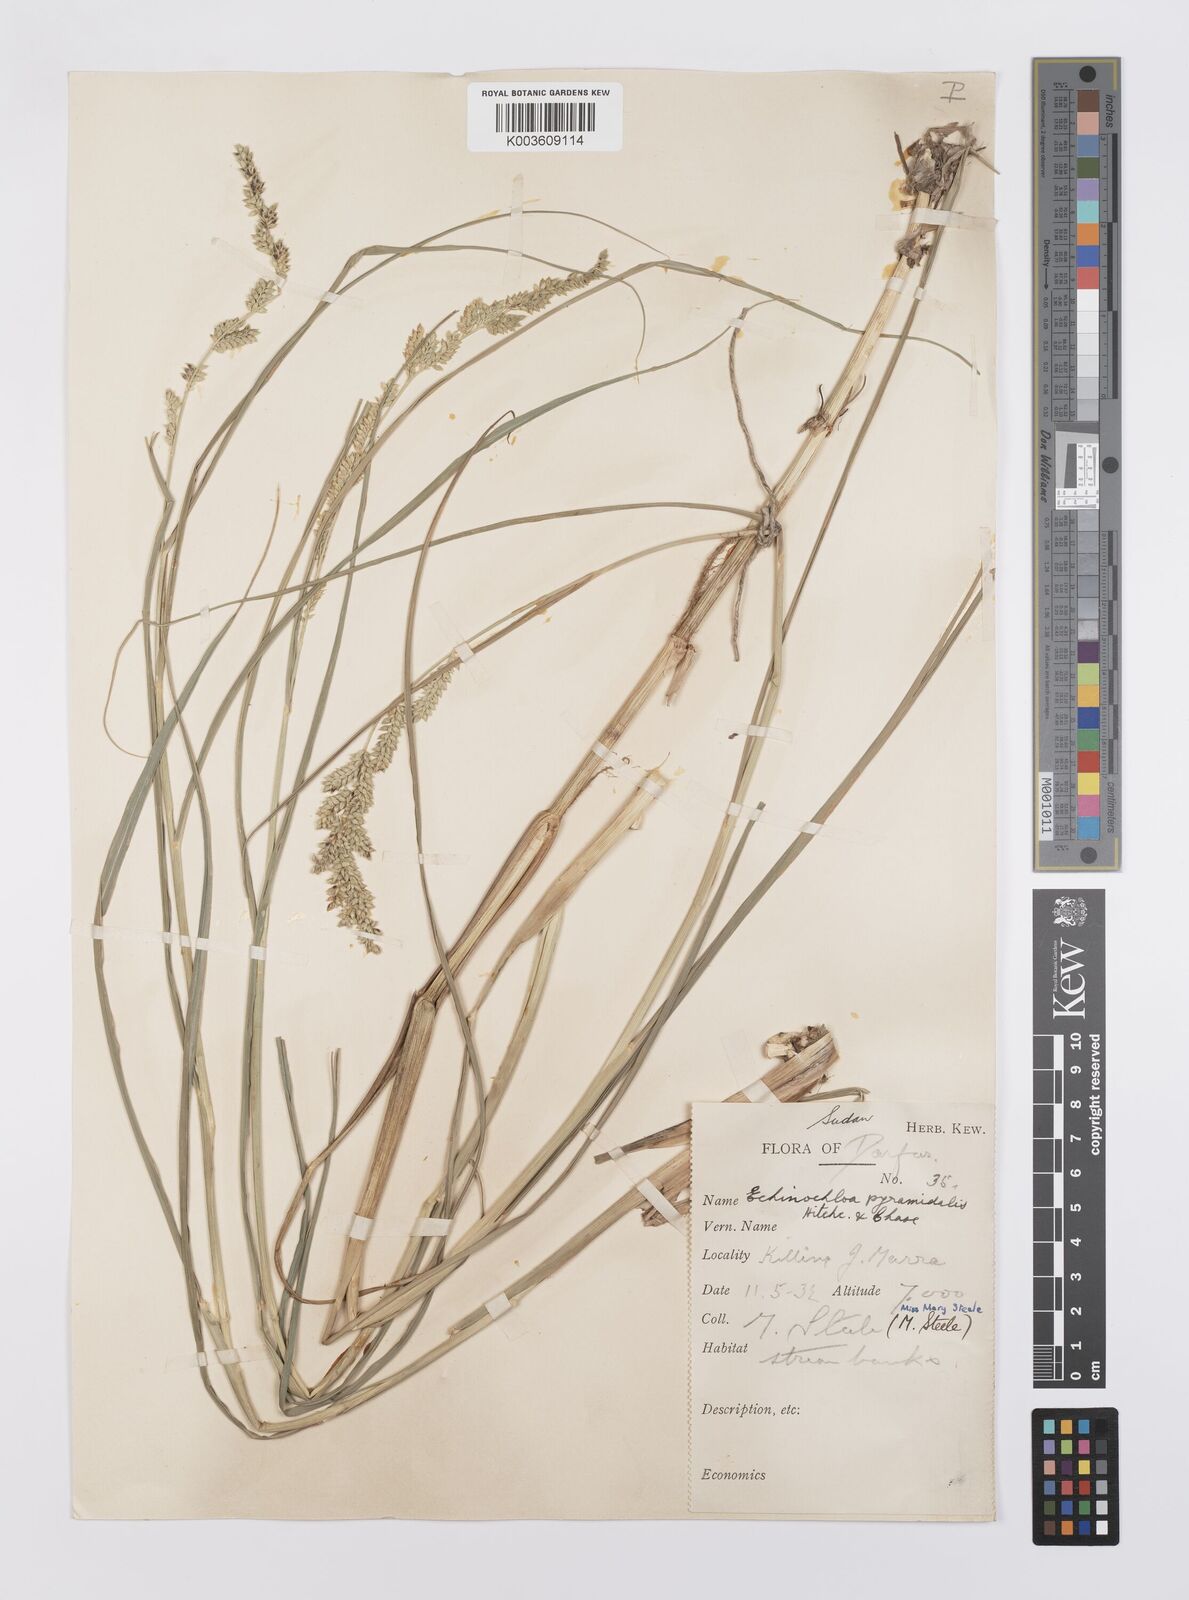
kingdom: Plantae
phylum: Tracheophyta
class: Liliopsida
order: Poales
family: Poaceae
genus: Echinochloa
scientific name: Echinochloa pyramidalis
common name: Antelope grass
